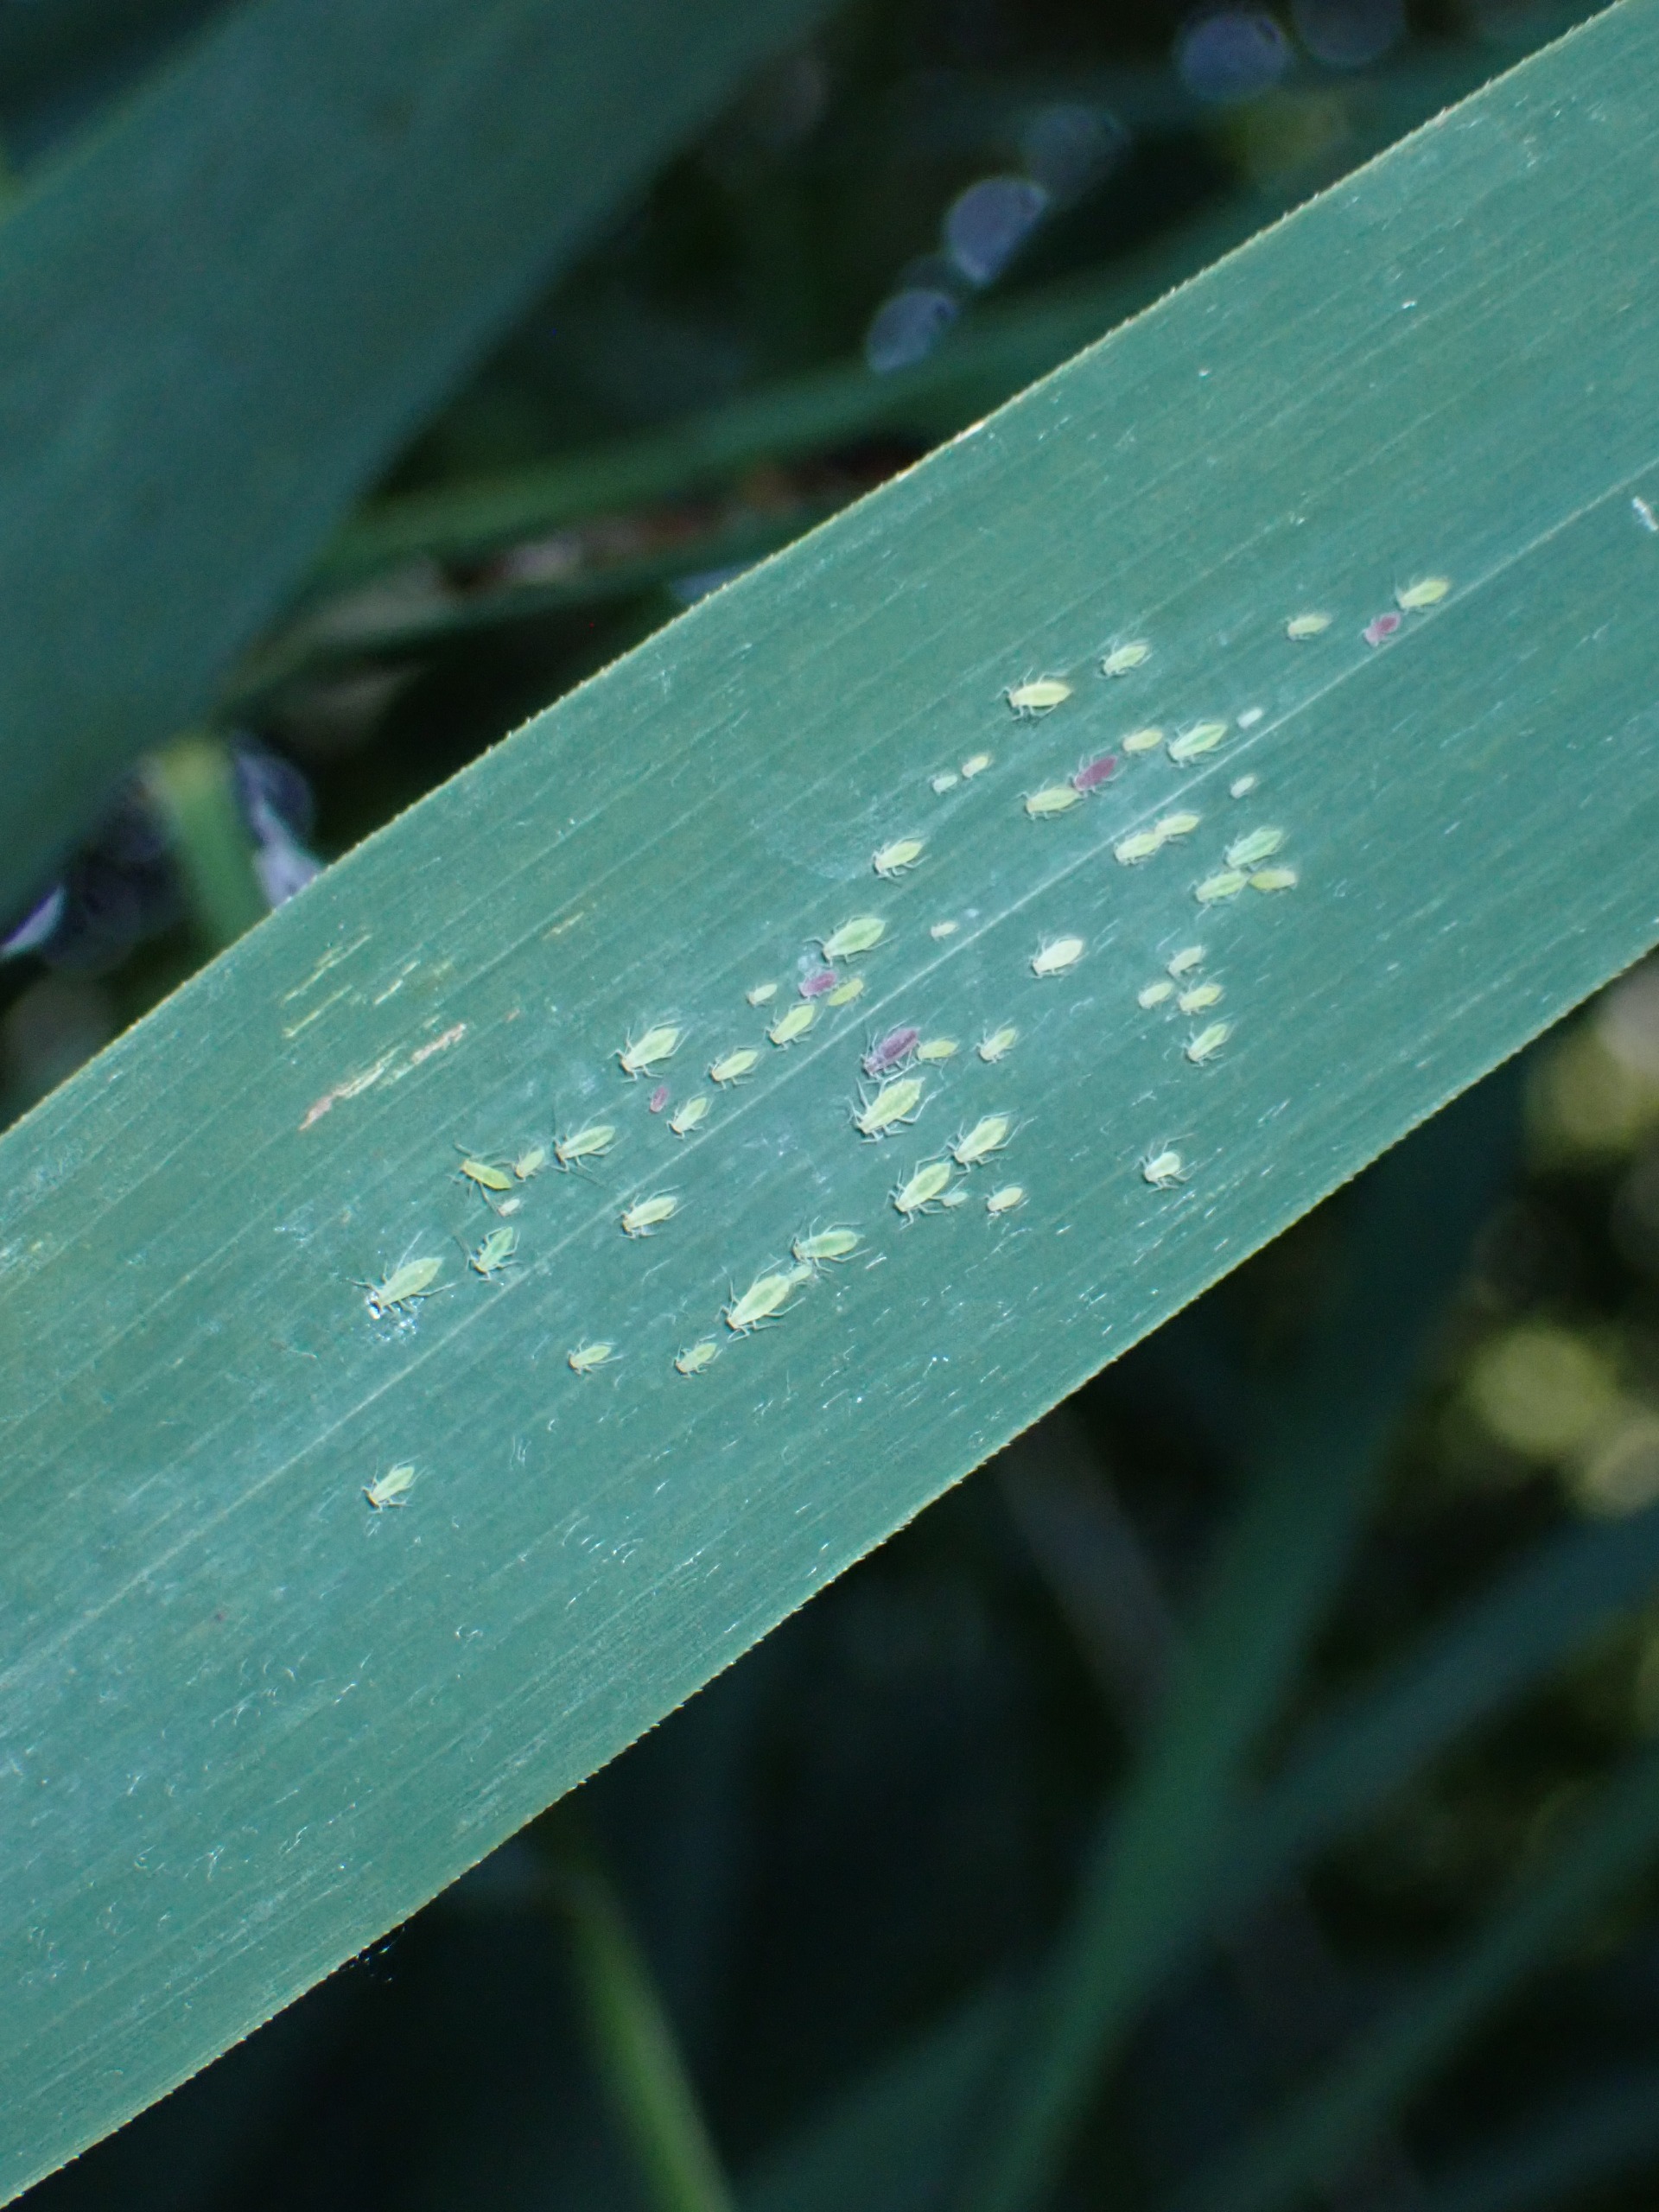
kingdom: Animalia
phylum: Arthropoda
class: Insecta
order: Hemiptera
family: Aphididae
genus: Hyalopterus
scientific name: Hyalopterus pruni
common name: Melet blommebladlus
